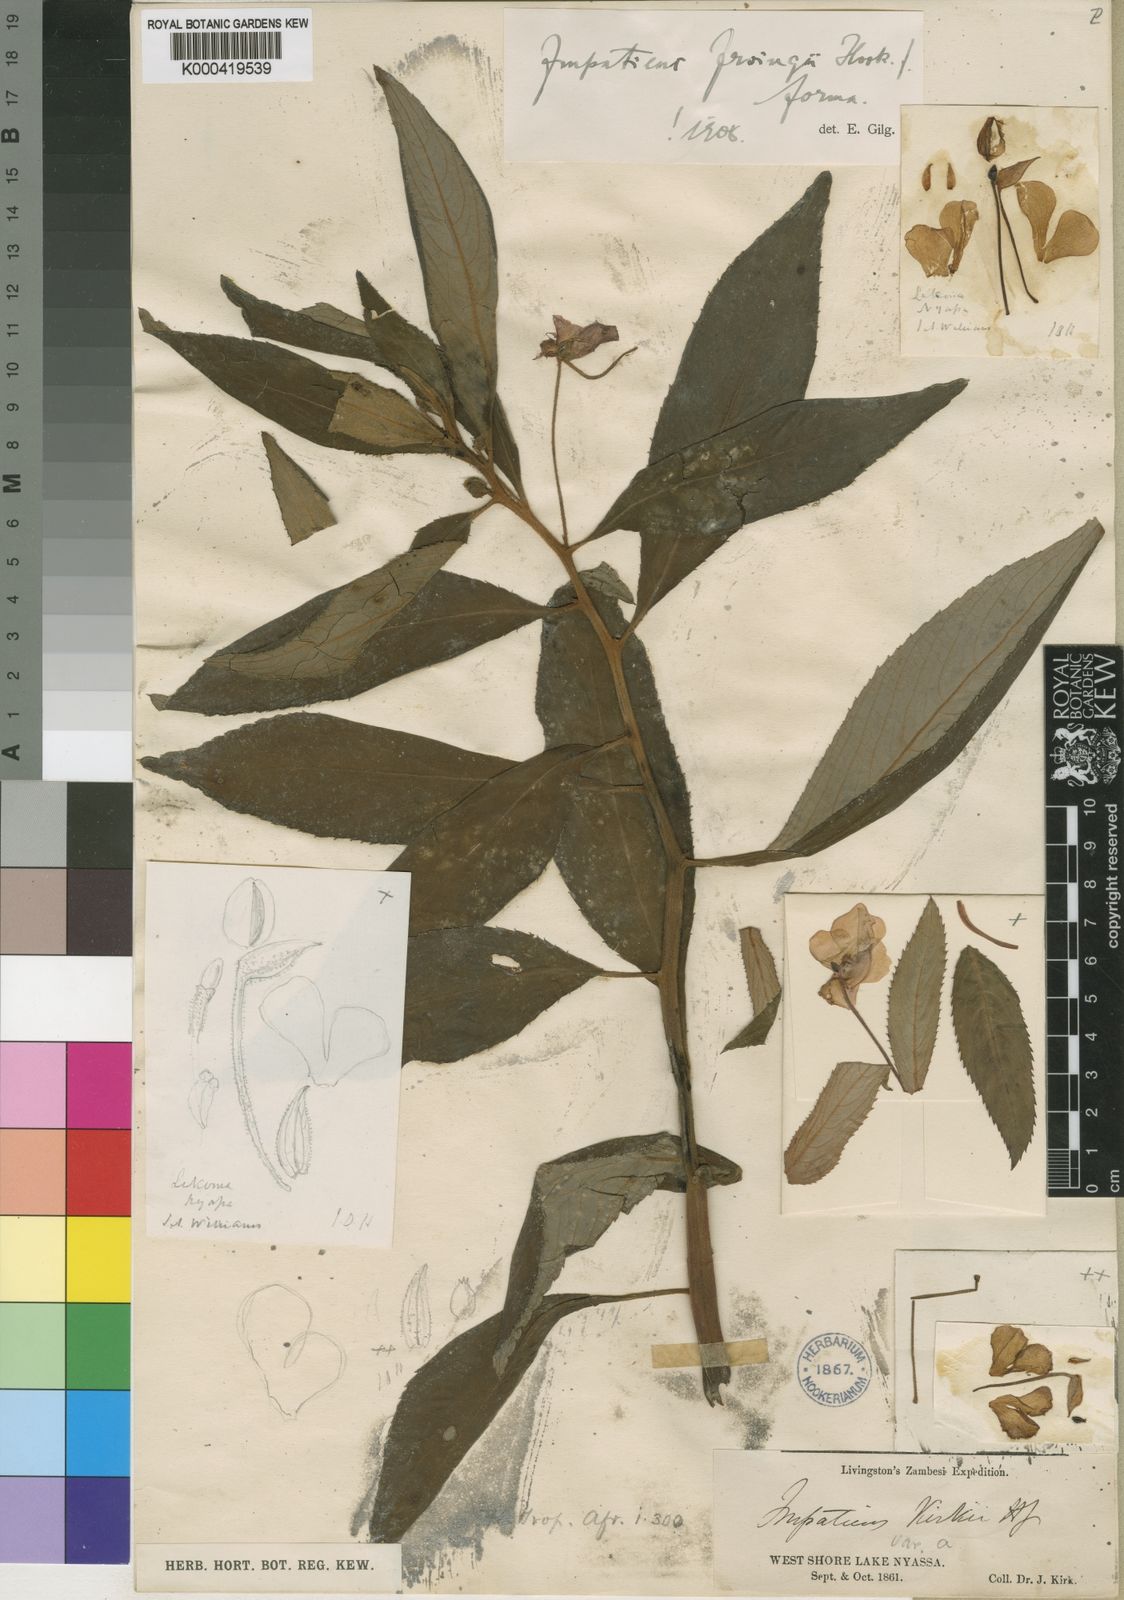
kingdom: Plantae
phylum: Tracheophyta
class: Magnoliopsida
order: Ericales
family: Balsaminaceae
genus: Impatiens
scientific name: Impatiens irvingii
